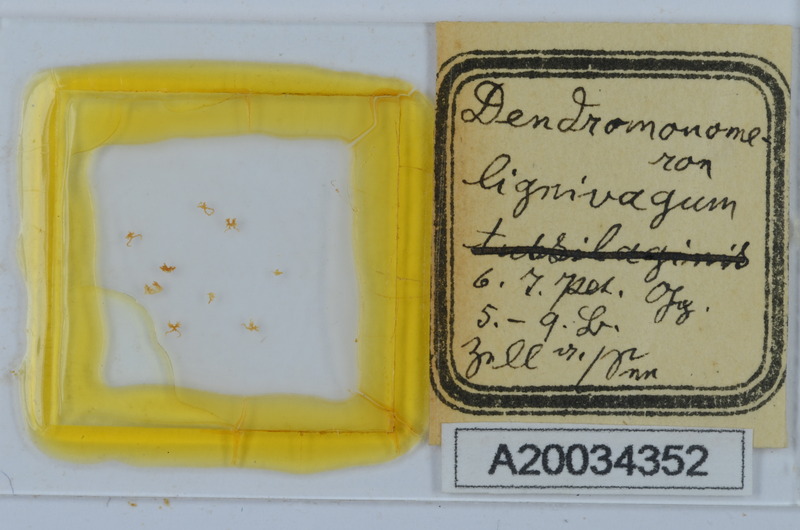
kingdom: Animalia
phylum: Arthropoda
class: Diplopoda
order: Chordeumatida
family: Attemsiidae
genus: Dendromonomeron
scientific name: Dendromonomeron lignivagum
